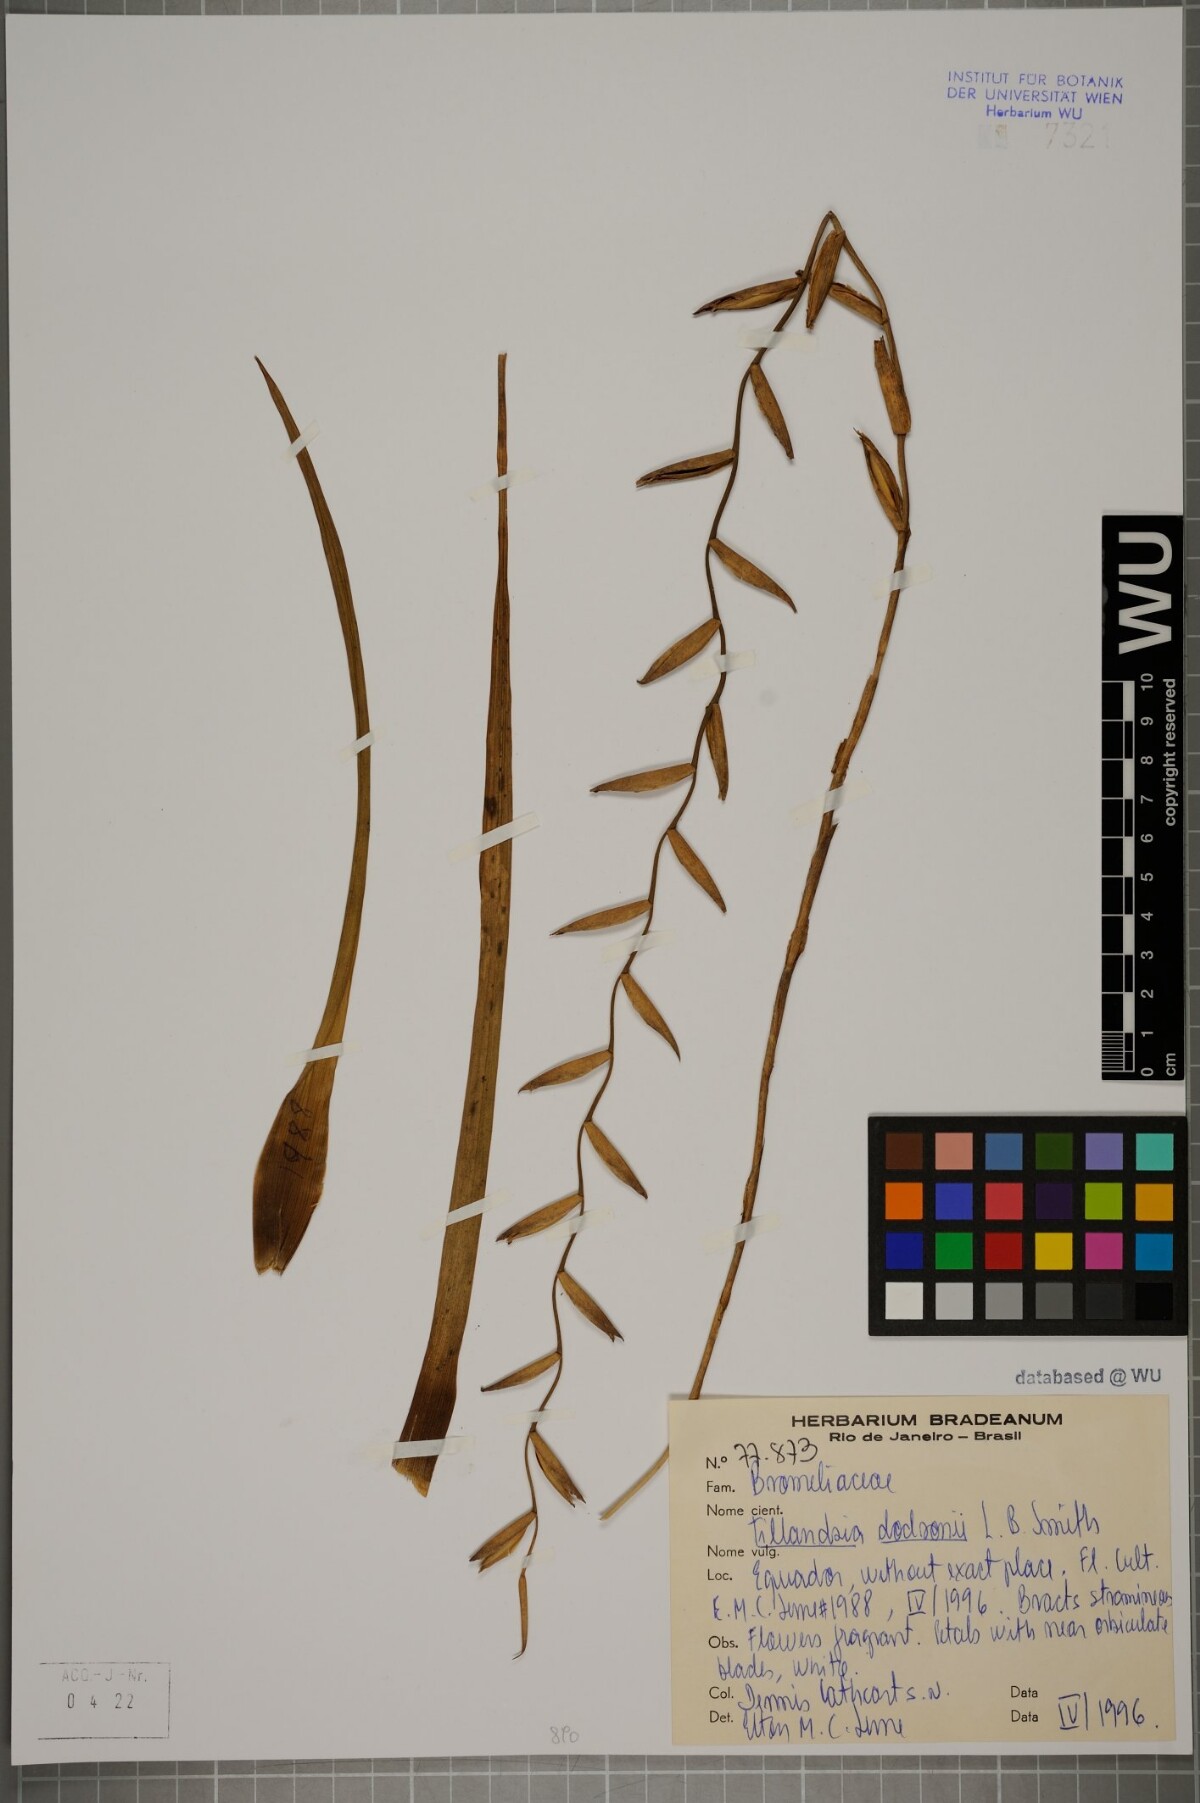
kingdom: Plantae
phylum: Tracheophyta
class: Liliopsida
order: Poales
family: Bromeliaceae
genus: Lemeltonia
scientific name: Lemeltonia dodsonii
